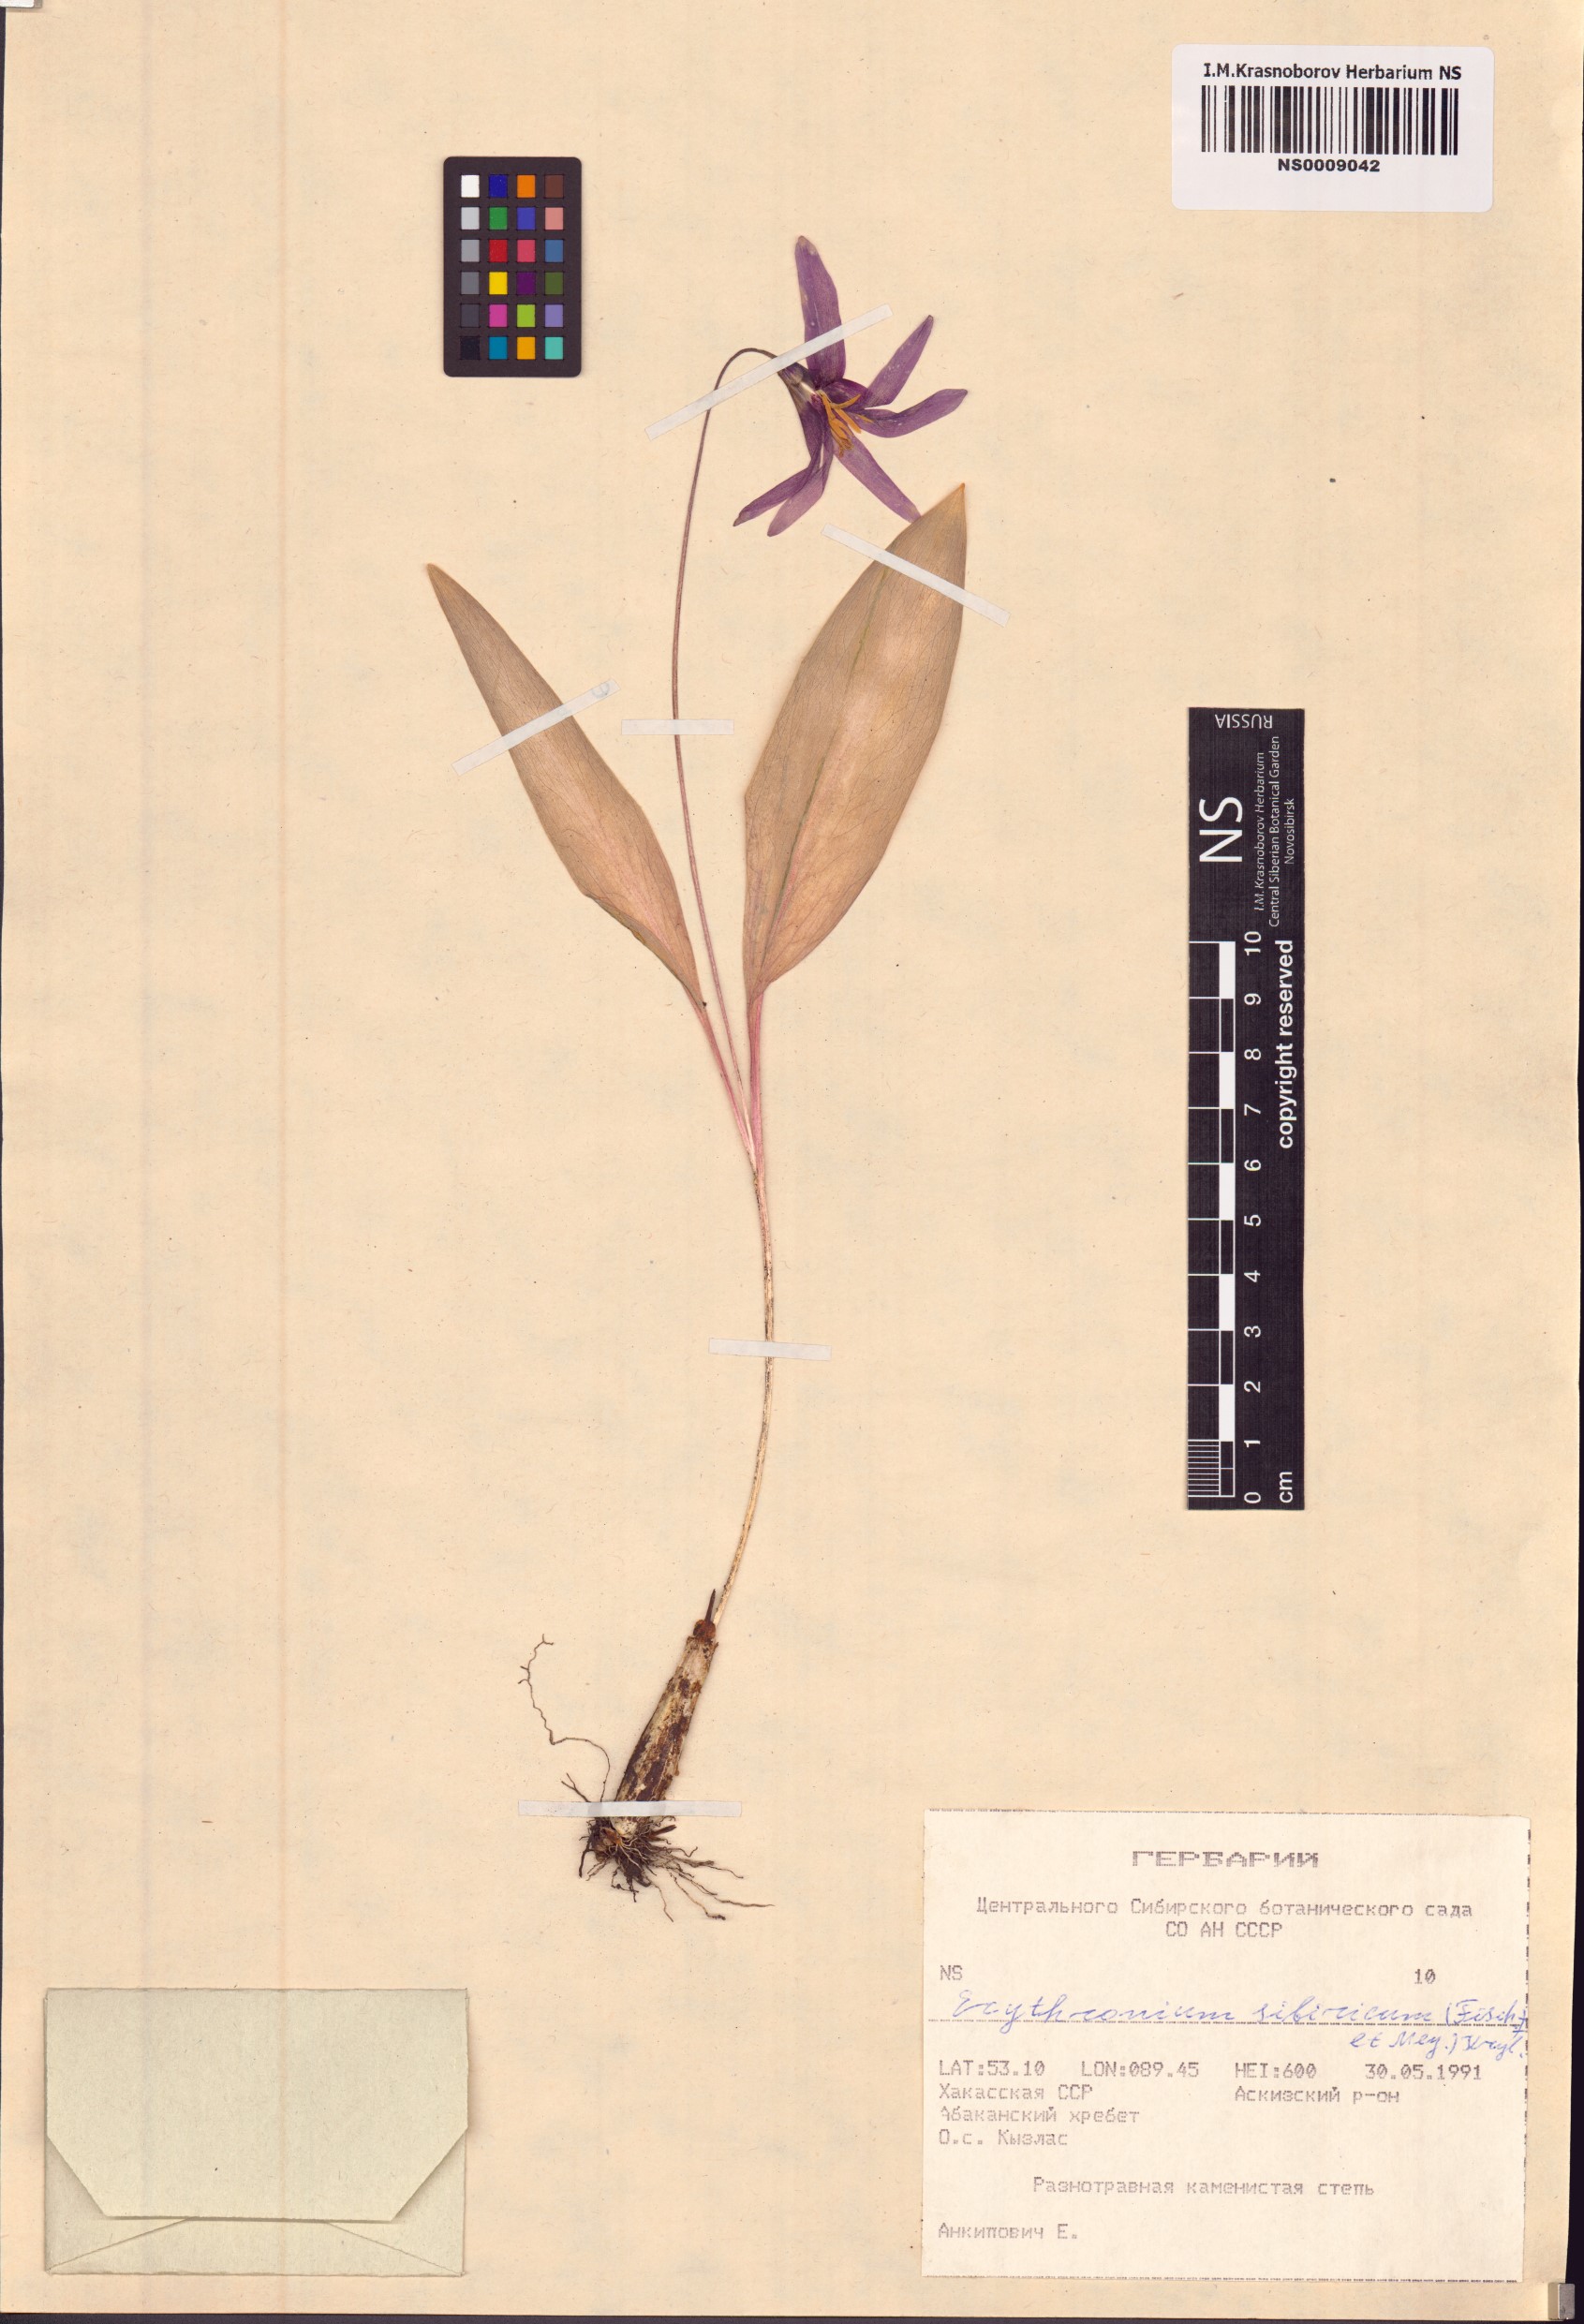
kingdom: Plantae
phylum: Tracheophyta
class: Liliopsida
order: Liliales
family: Liliaceae
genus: Erythronium
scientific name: Erythronium sibiricum
